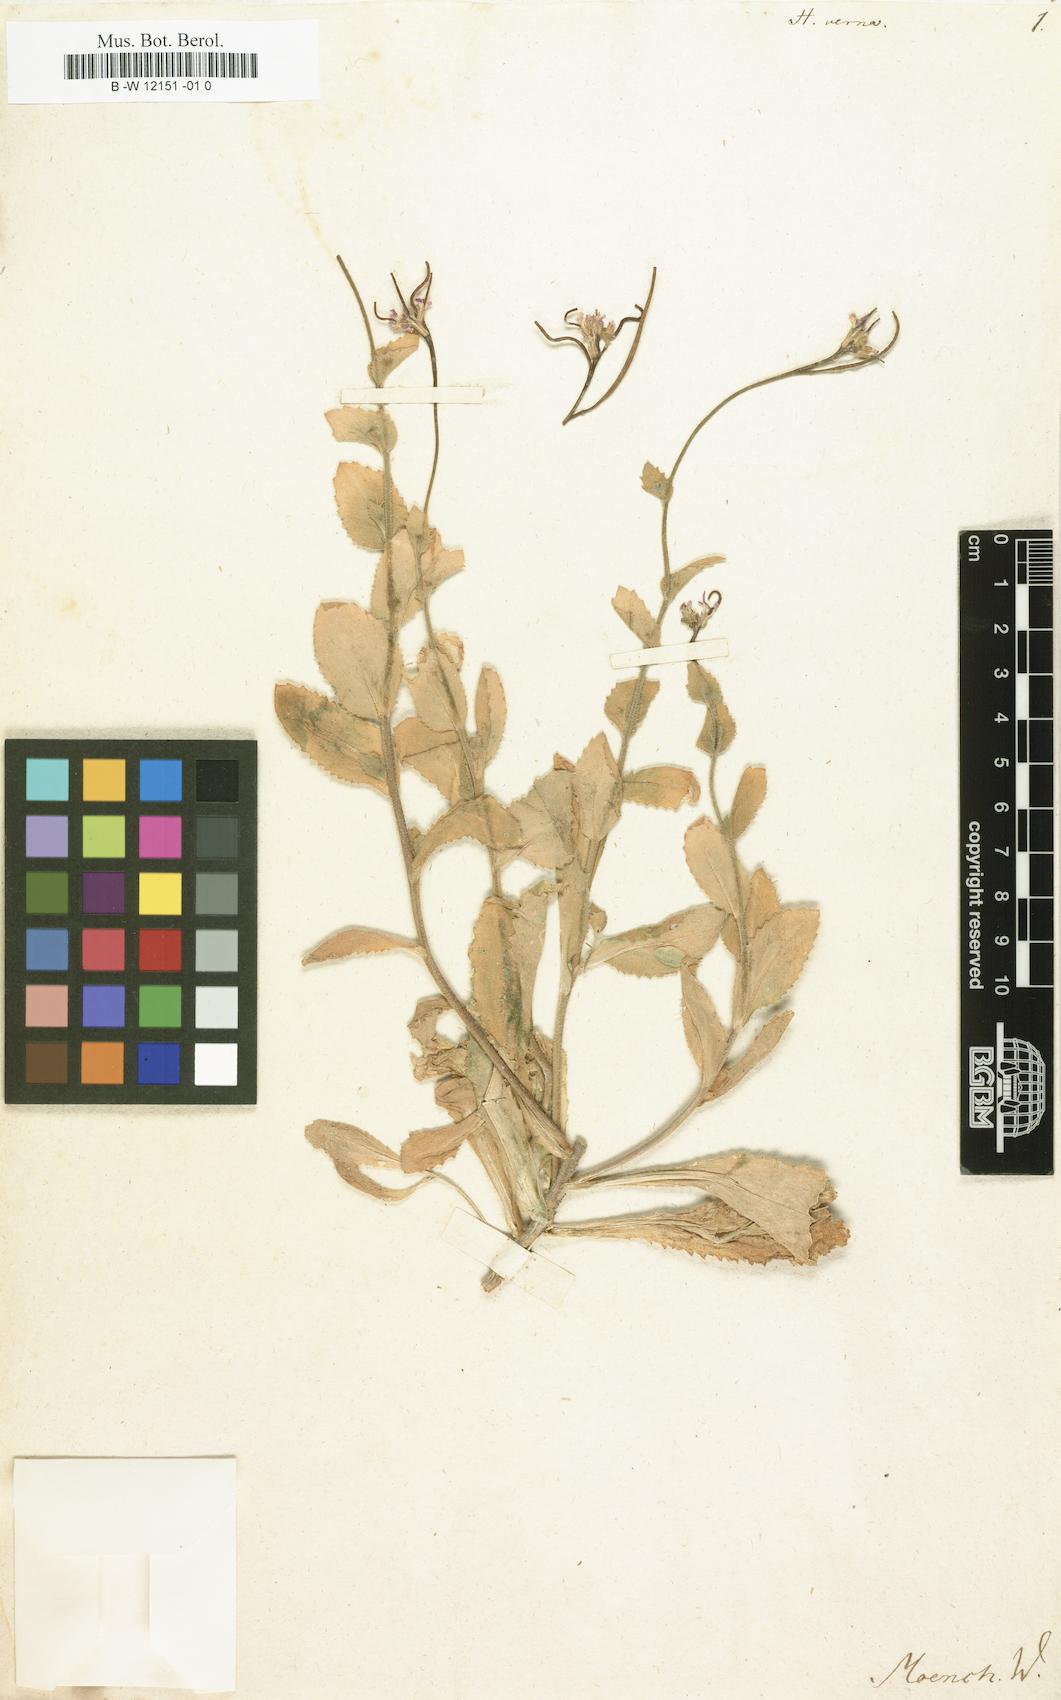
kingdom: Plantae
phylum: Tracheophyta
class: Magnoliopsida
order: Brassicales
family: Brassicaceae
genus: Arabis
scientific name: Arabis verna
